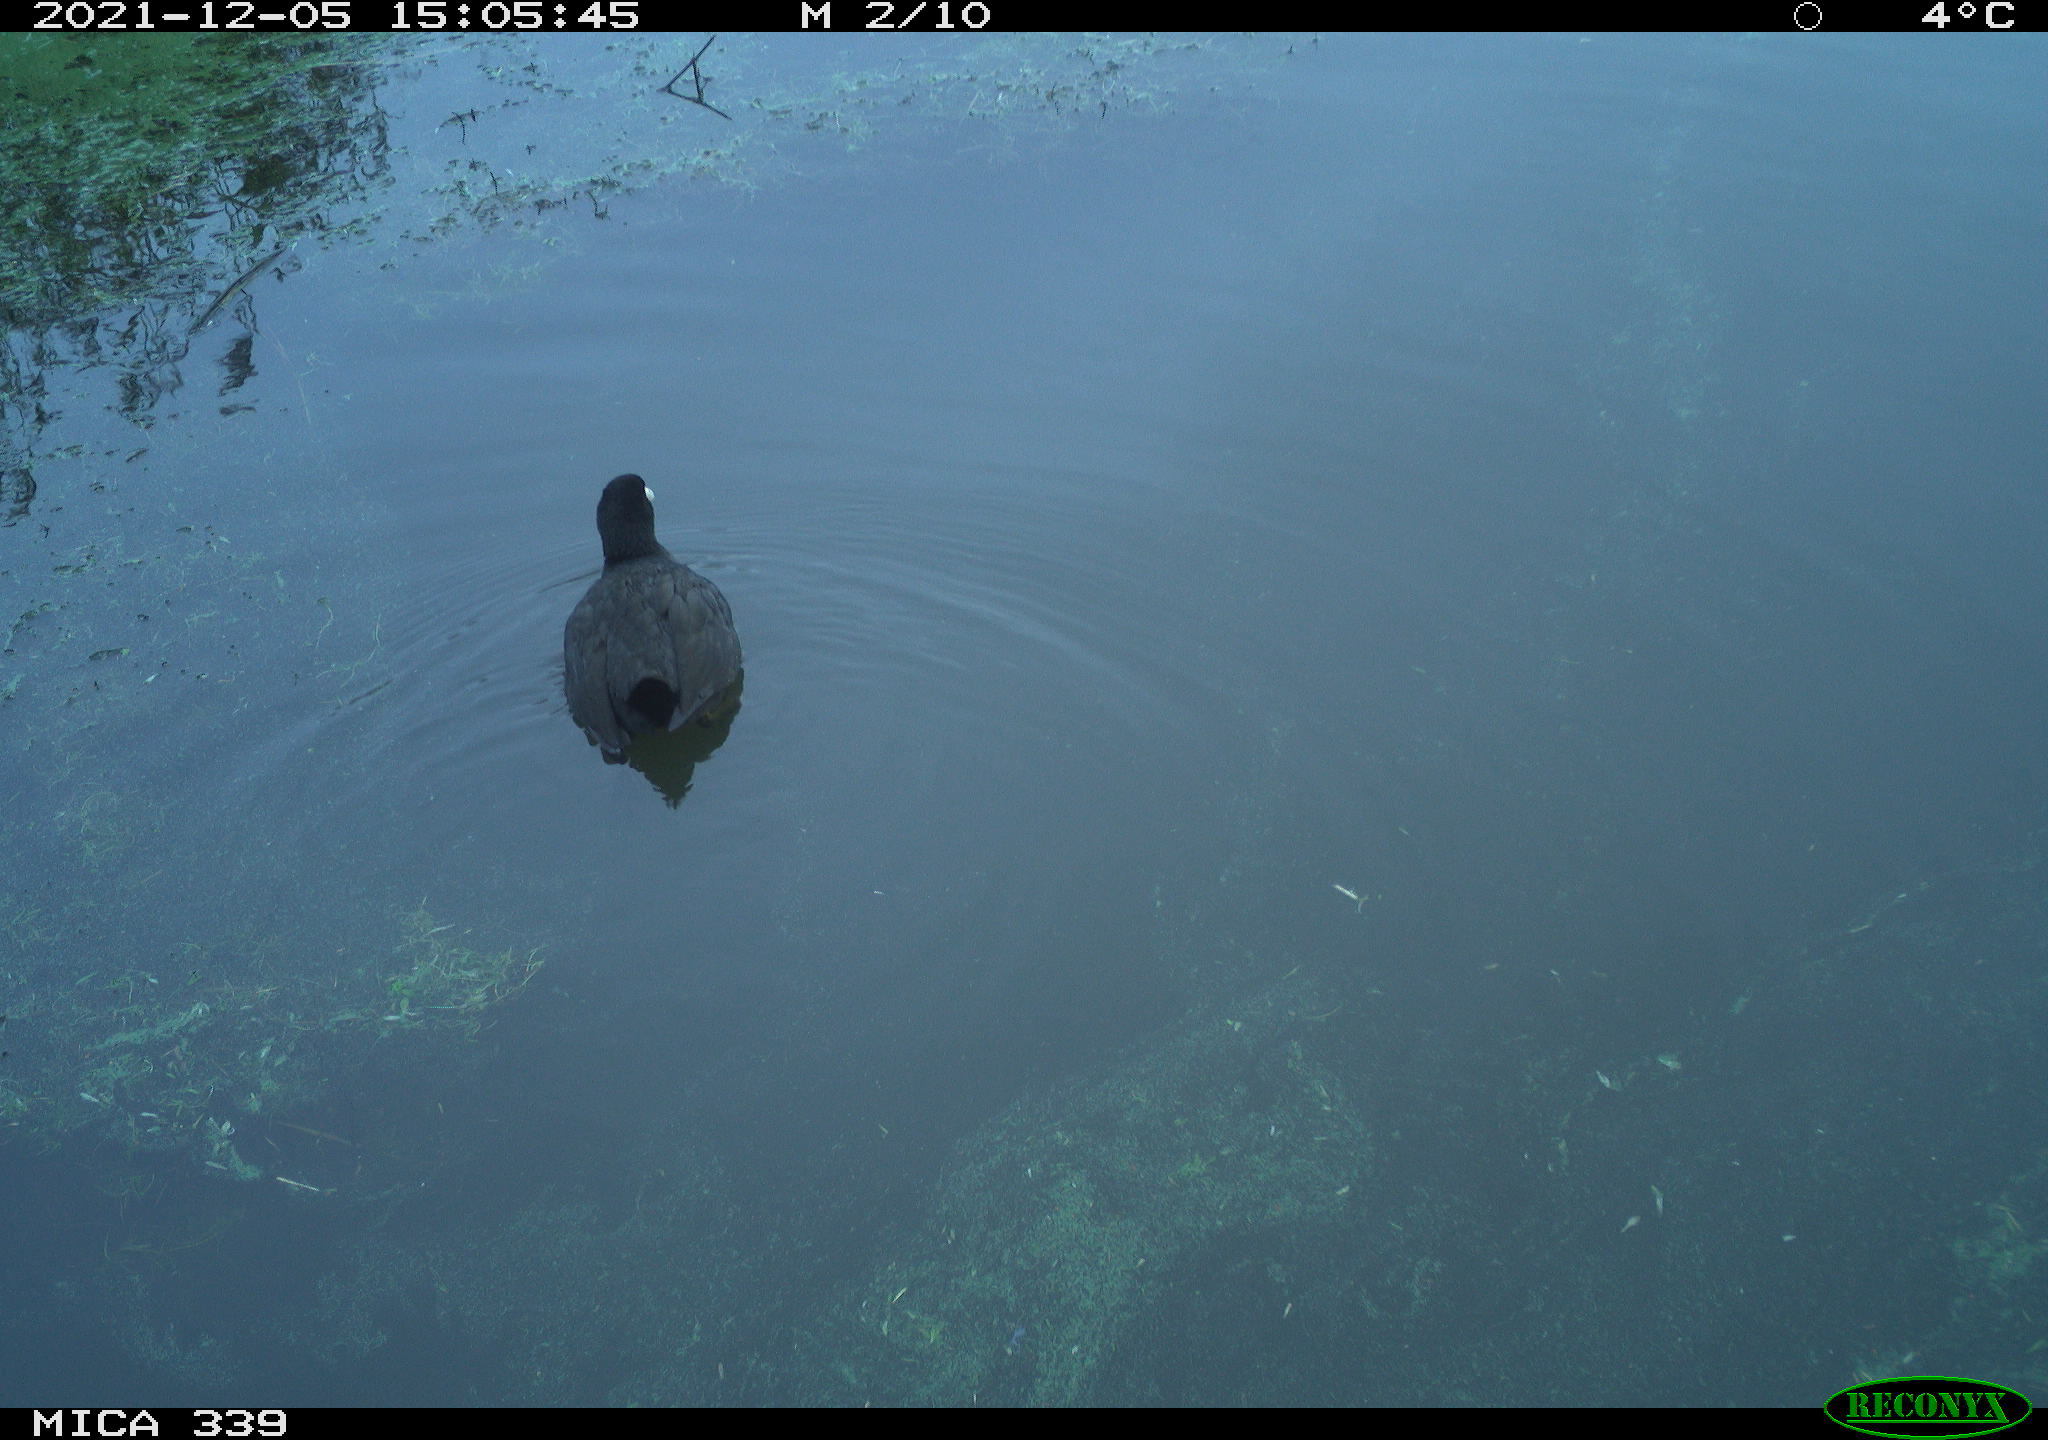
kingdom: Animalia
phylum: Chordata
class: Aves
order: Gruiformes
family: Rallidae
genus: Fulica
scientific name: Fulica atra
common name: Eurasian coot
